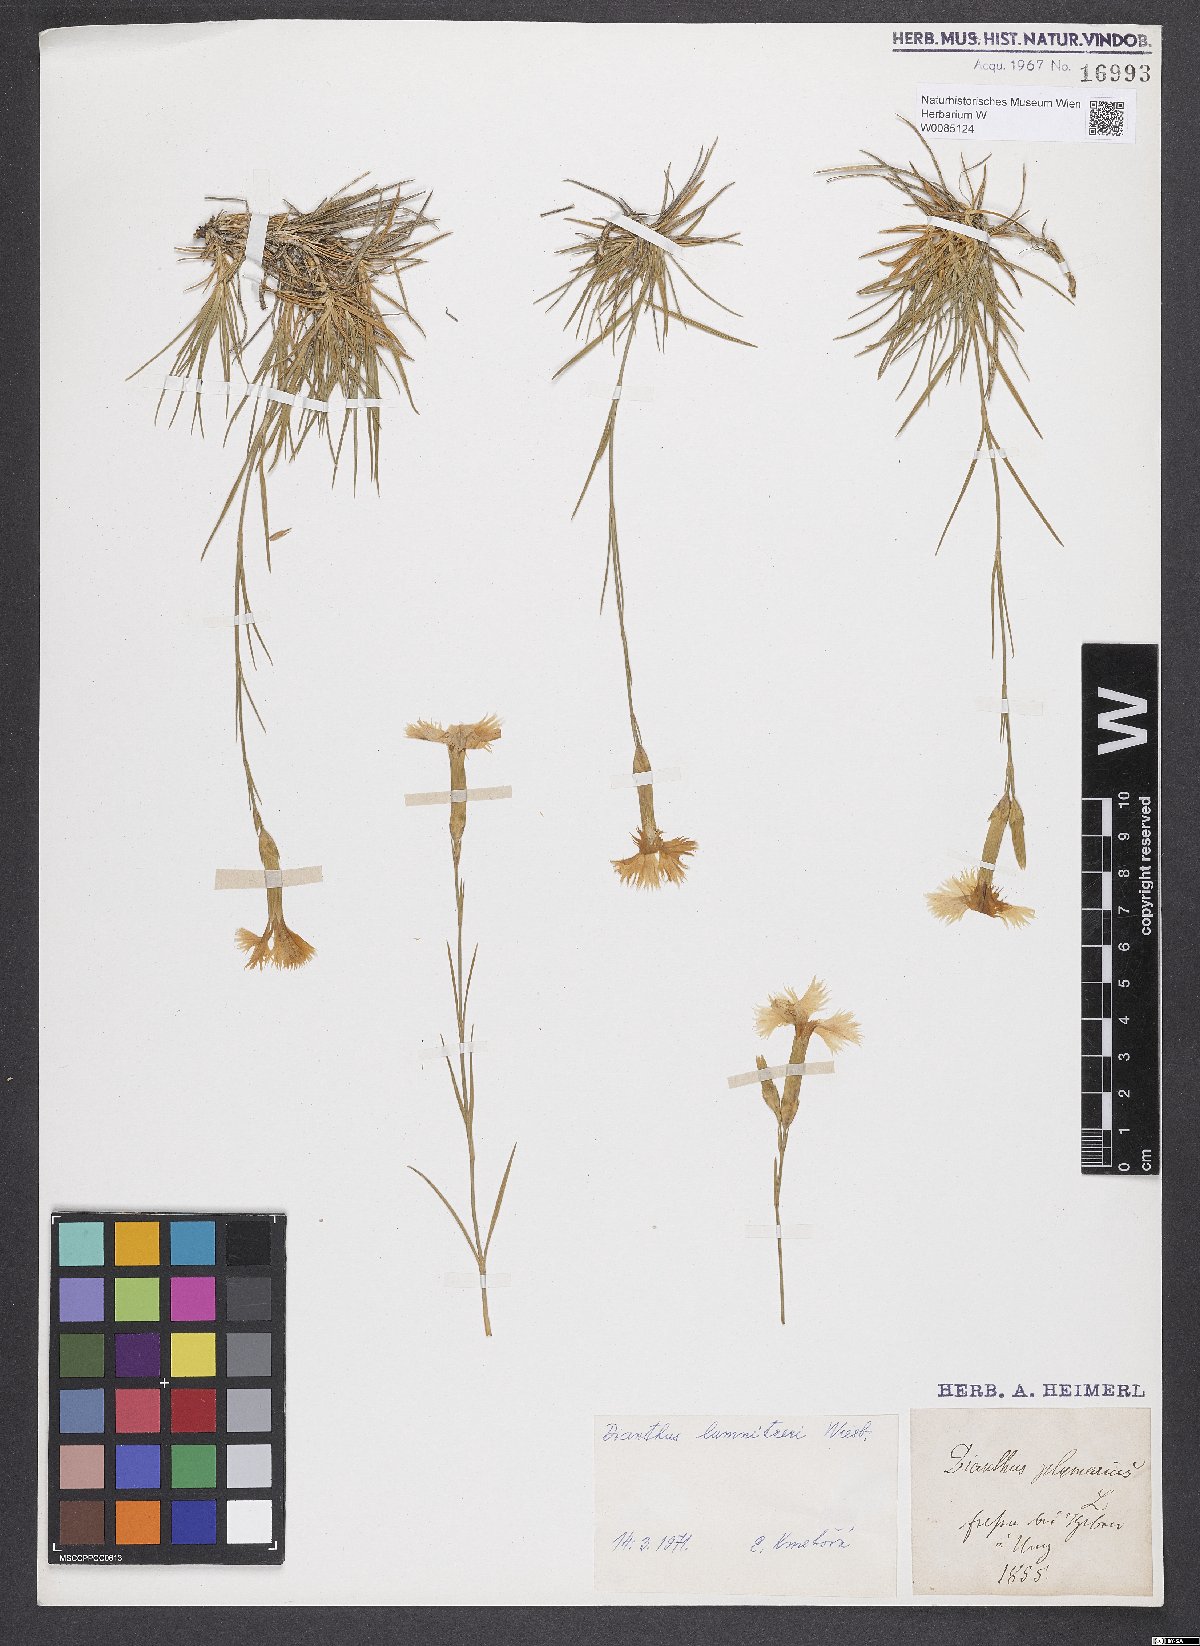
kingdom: Plantae
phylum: Tracheophyta
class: Magnoliopsida
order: Caryophyllales
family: Caryophyllaceae
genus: Dianthus
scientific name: Dianthus praecox
